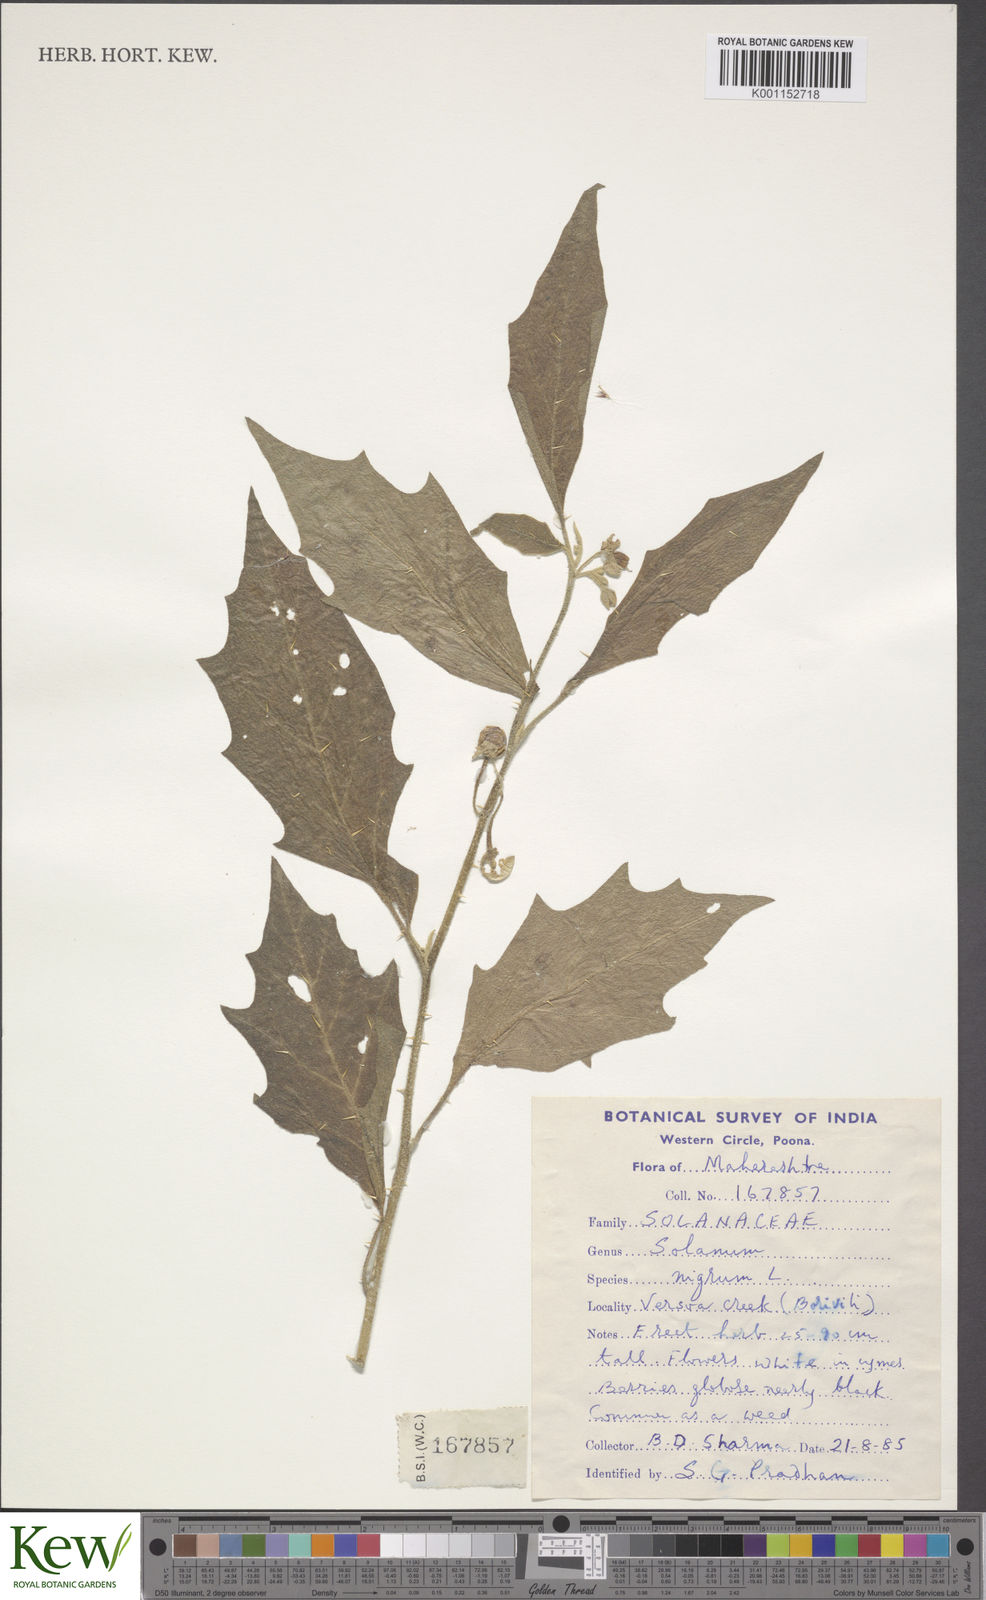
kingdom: Plantae
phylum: Tracheophyta
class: Magnoliopsida
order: Solanales
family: Solanaceae
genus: Solanum
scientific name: Solanum nigrum
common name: Black nightshade
